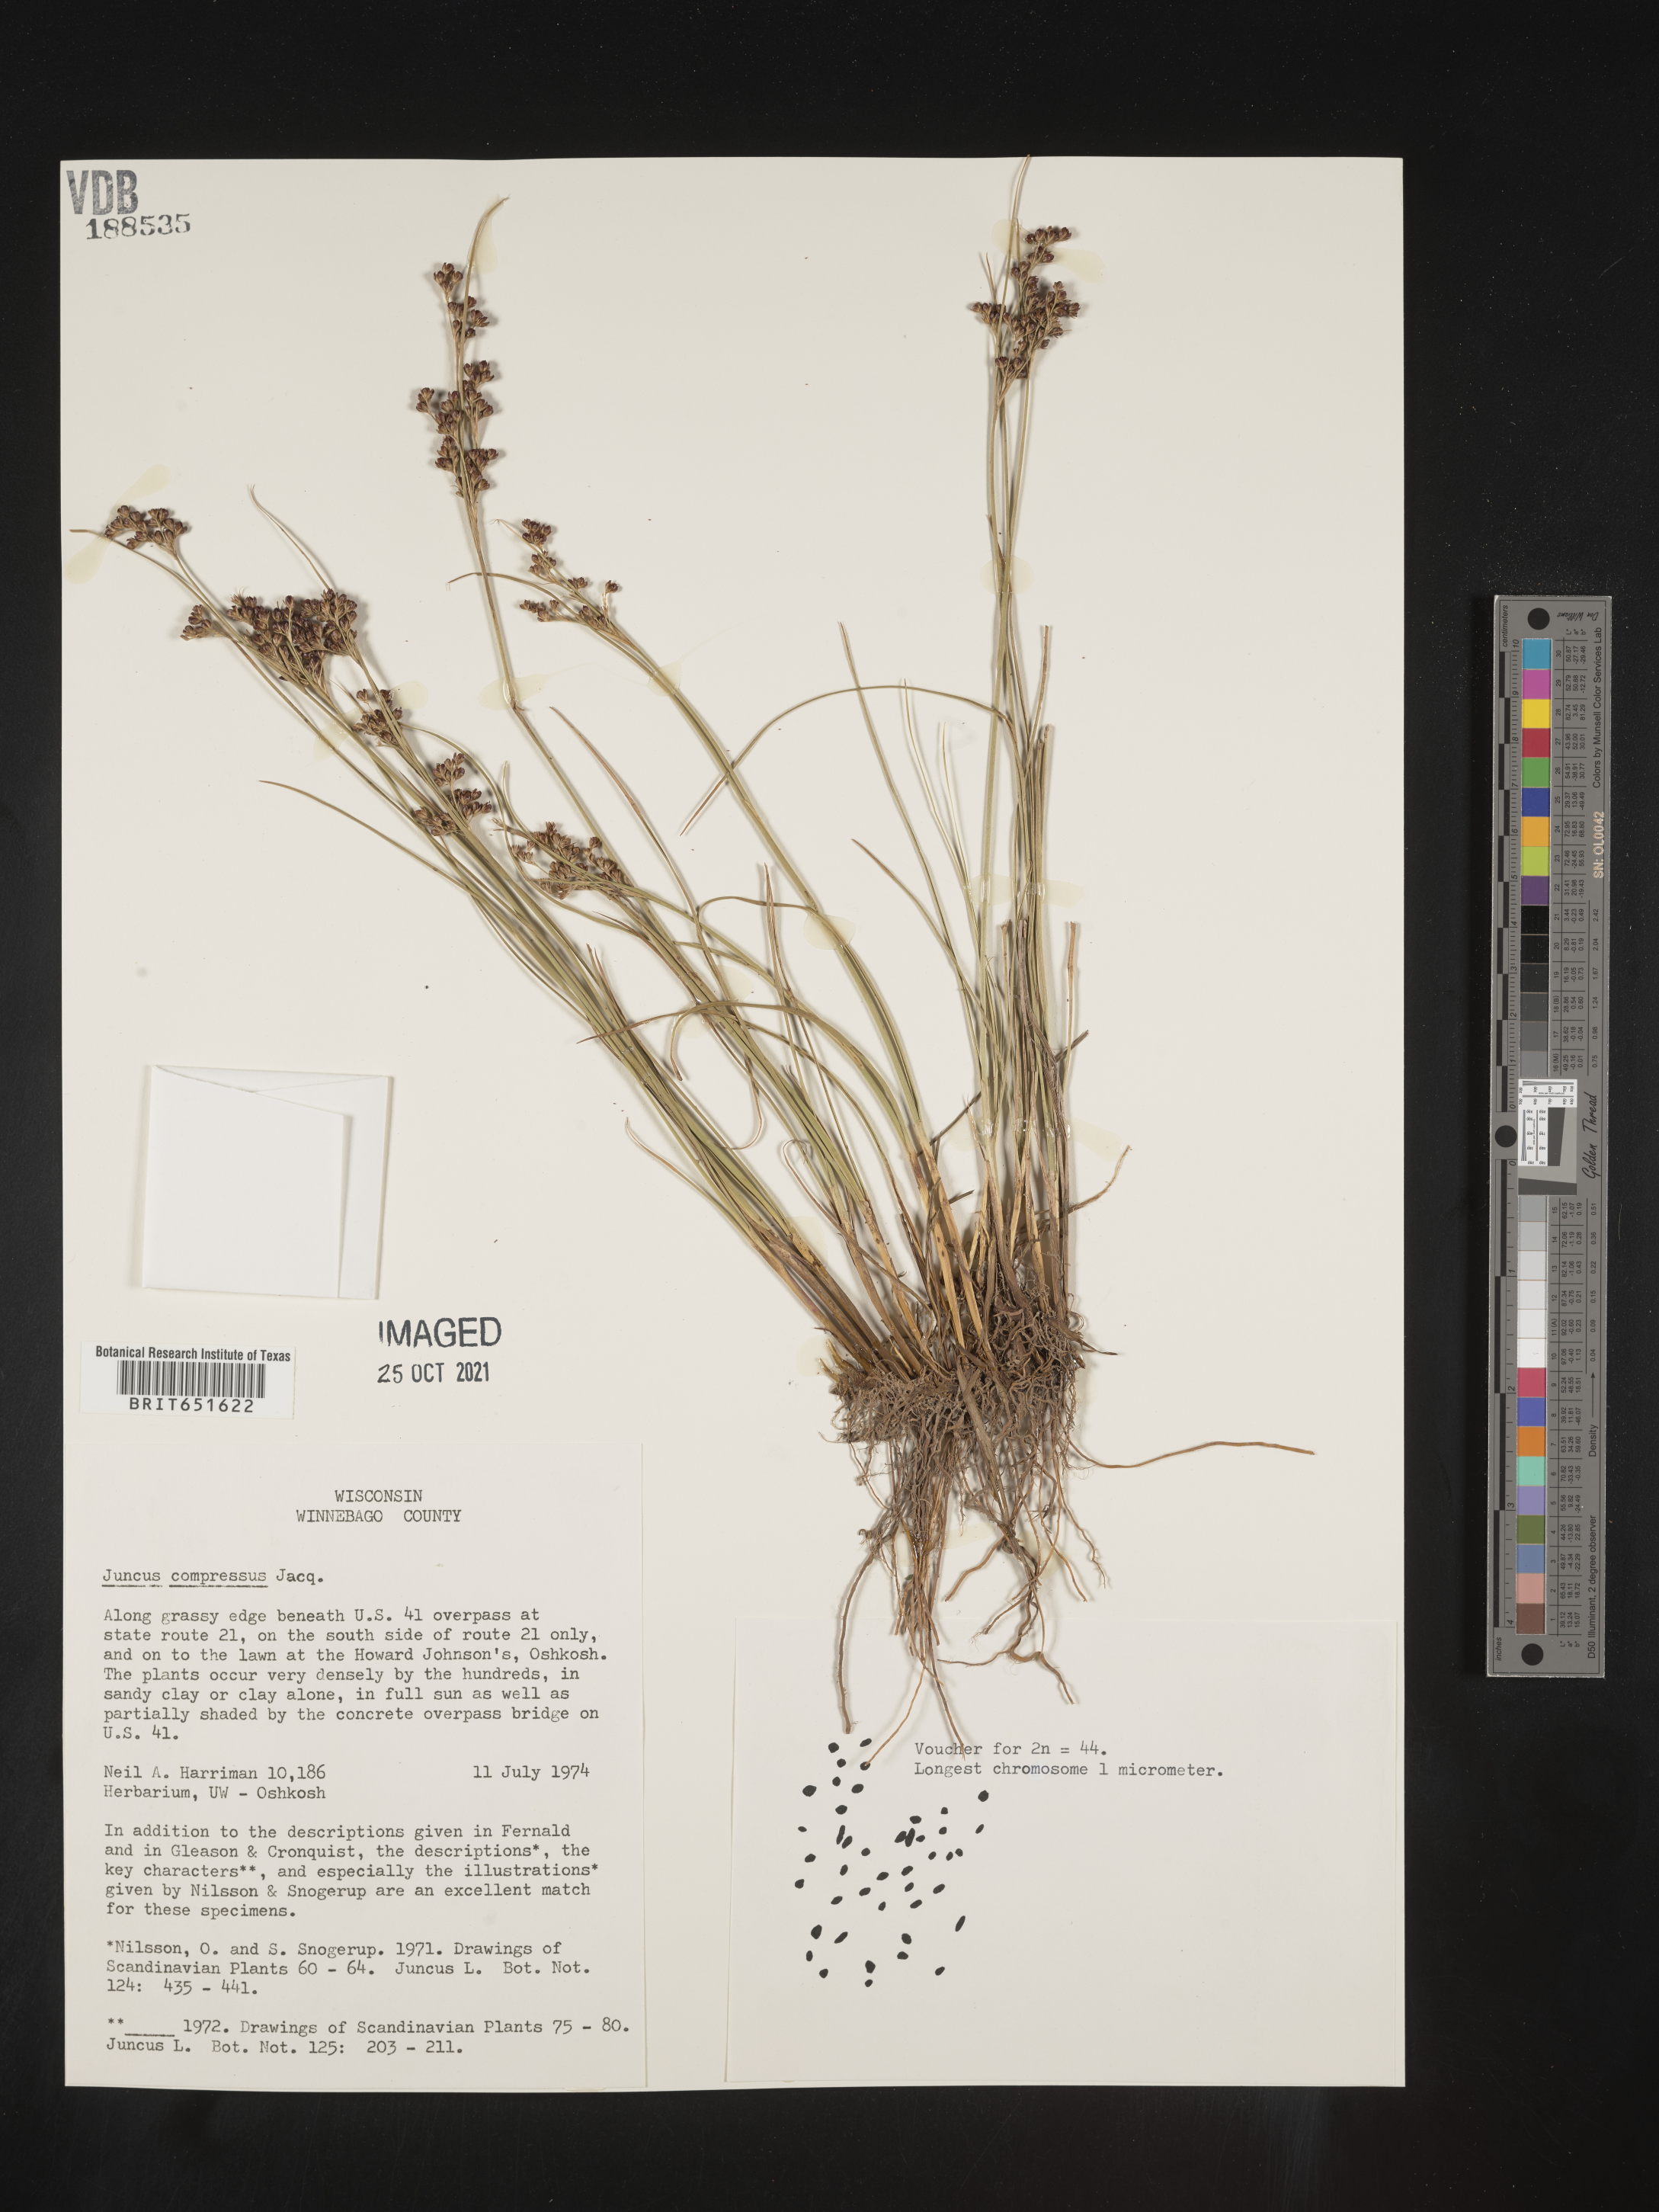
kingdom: Plantae
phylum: Tracheophyta
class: Liliopsida
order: Poales
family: Juncaceae
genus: Juncus
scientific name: Juncus compressus
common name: Round-fruited rush
